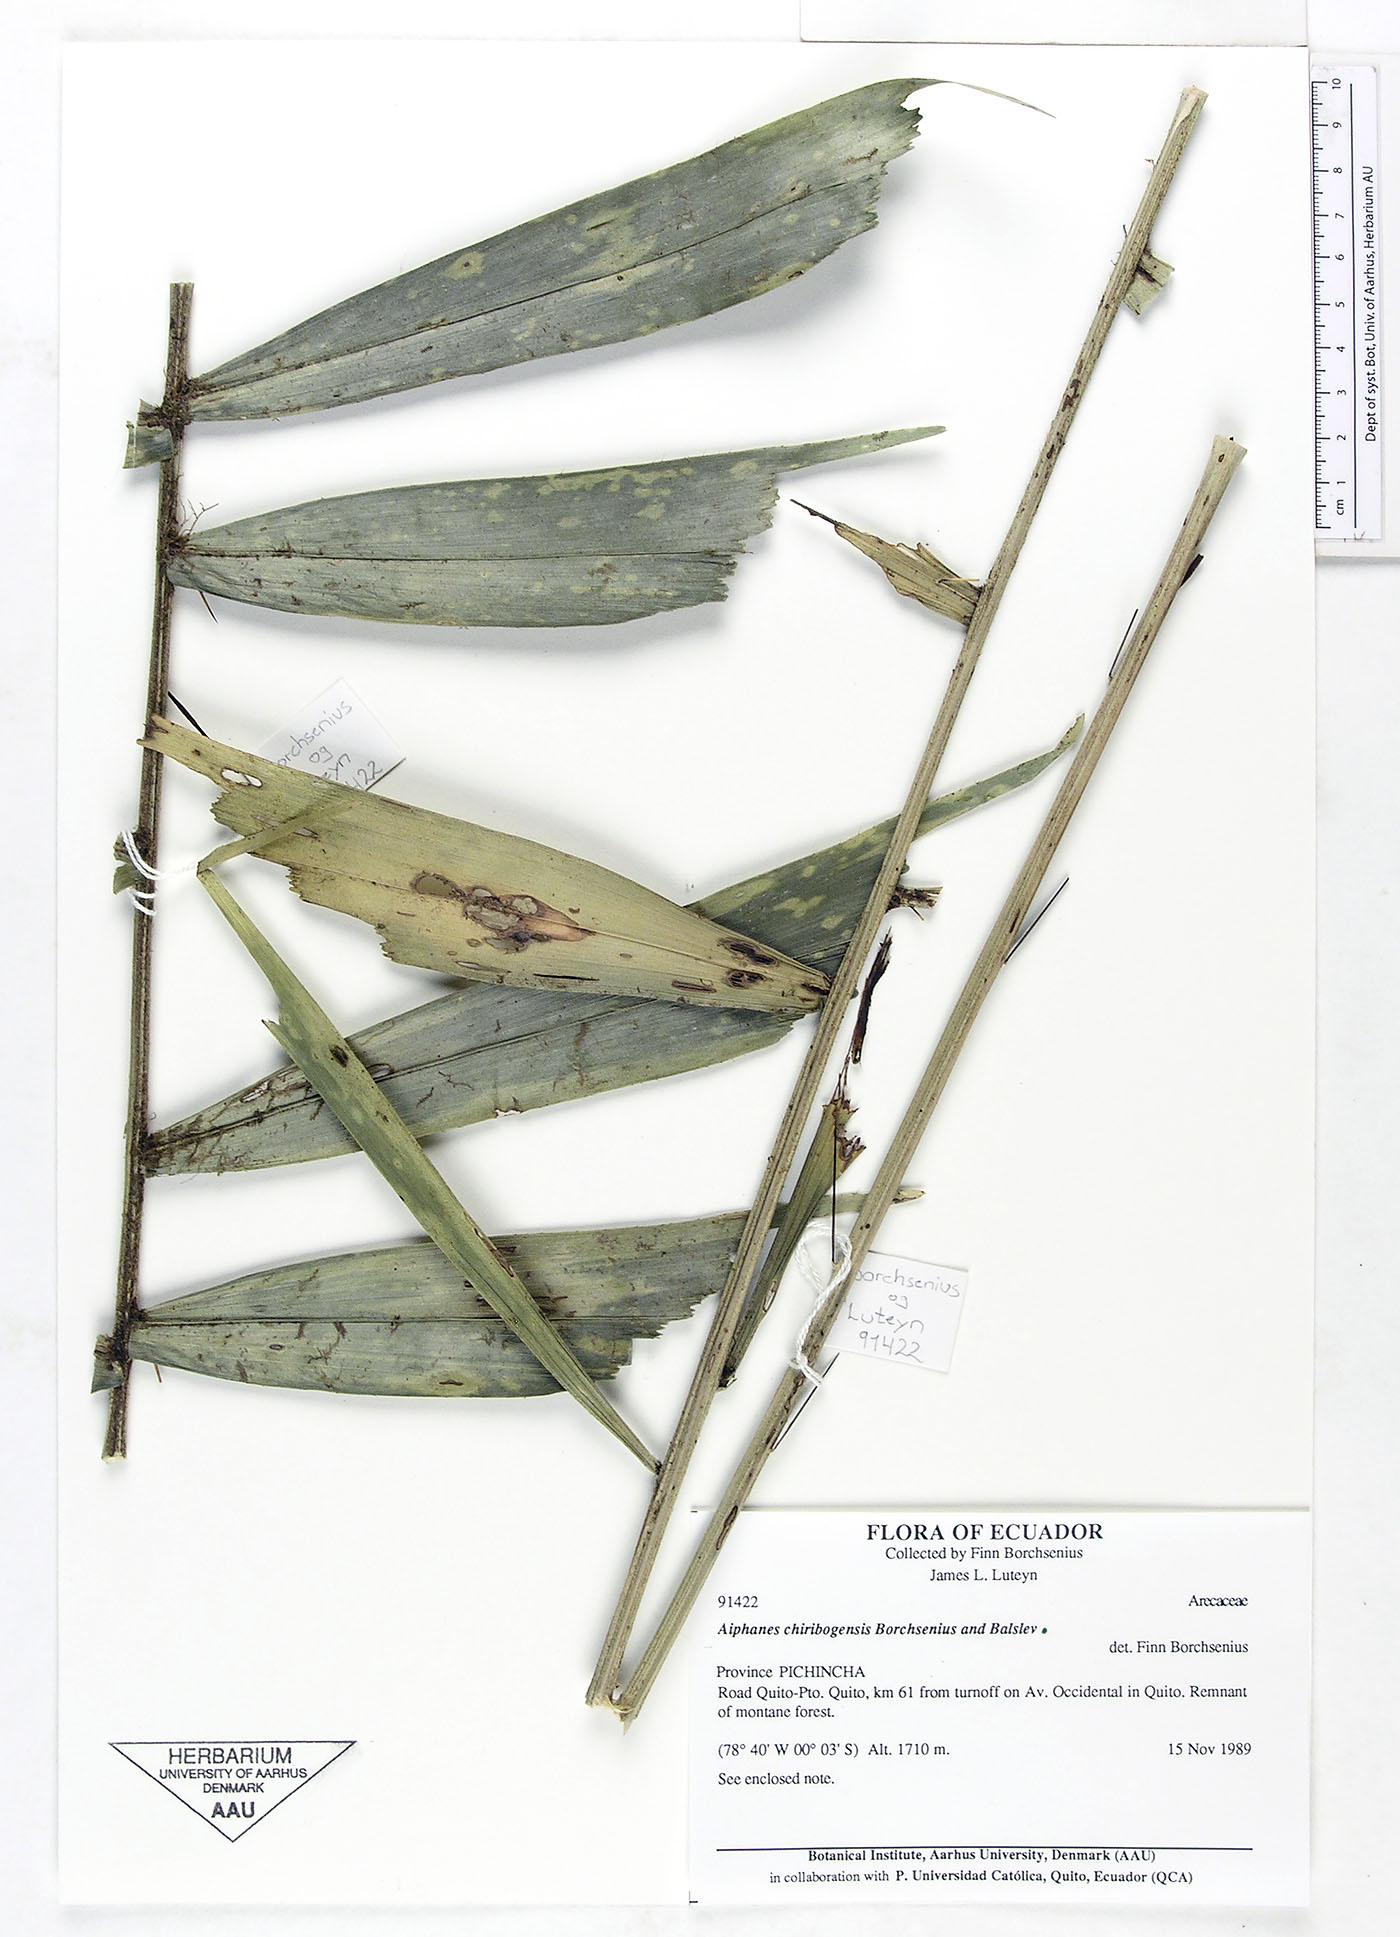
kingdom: Plantae
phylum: Tracheophyta
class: Liliopsida
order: Arecales
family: Arecaceae
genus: Aiphanes
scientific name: Aiphanes chiribogensis
